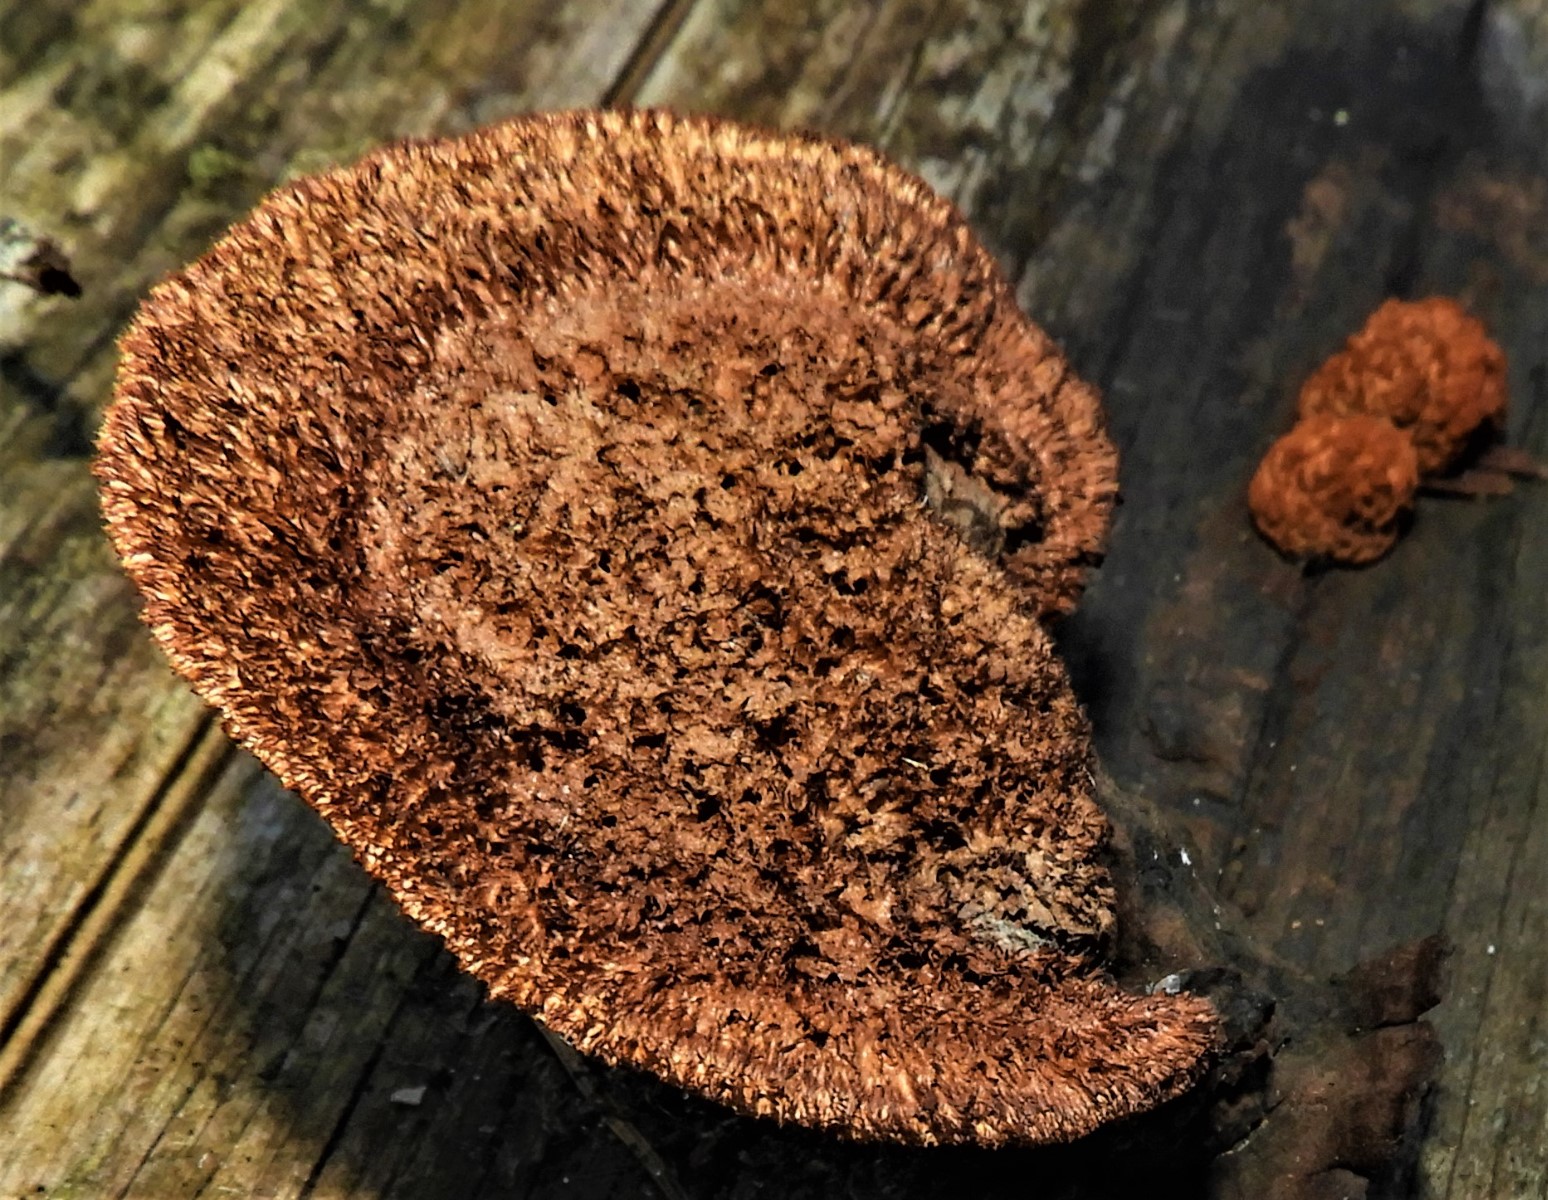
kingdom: Fungi
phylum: Basidiomycota
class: Agaricomycetes
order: Gloeophyllales
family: Gloeophyllaceae
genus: Gloeophyllum
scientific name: Gloeophyllum sepiarium
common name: fyrre-korkhat
